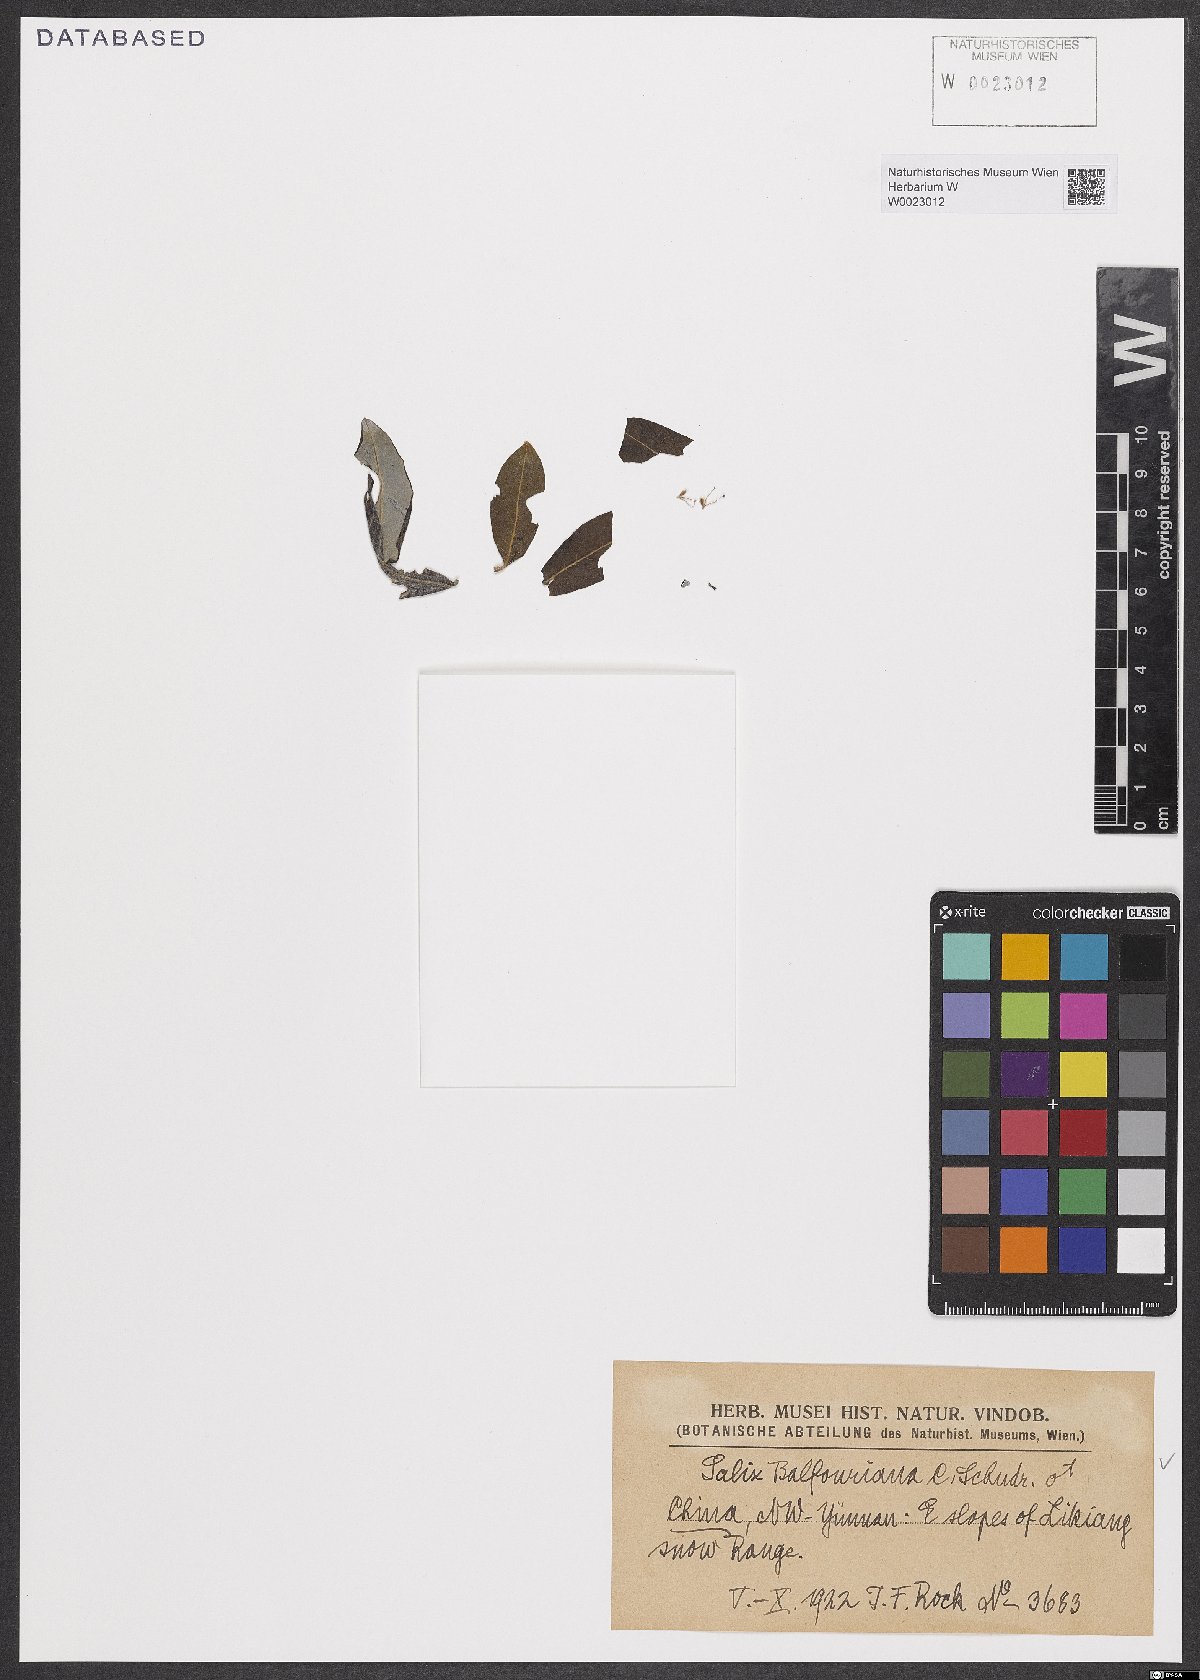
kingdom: Plantae
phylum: Tracheophyta
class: Magnoliopsida
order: Malpighiales
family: Salicaceae
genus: Salix
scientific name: Salix balfouriana
